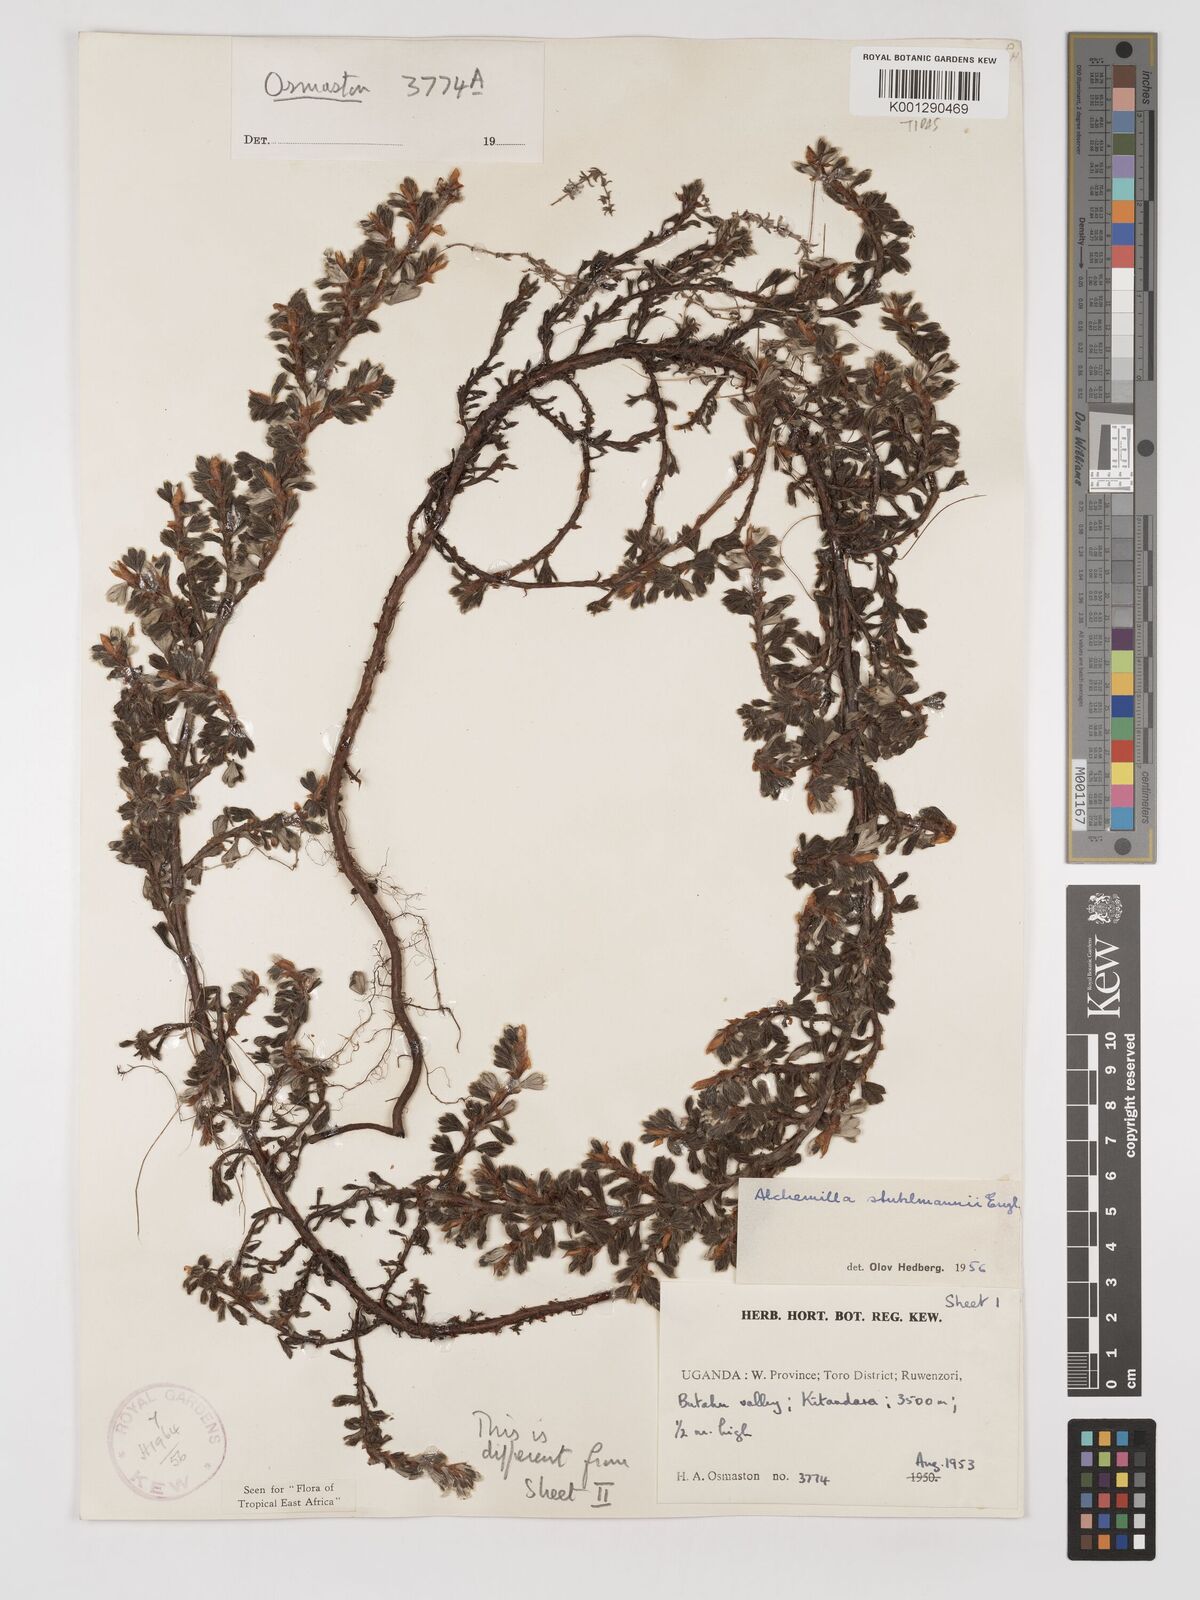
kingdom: Plantae
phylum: Tracheophyta
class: Magnoliopsida
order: Rosales
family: Rosaceae
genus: Alchemilla
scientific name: Alchemilla stuhlmannii
